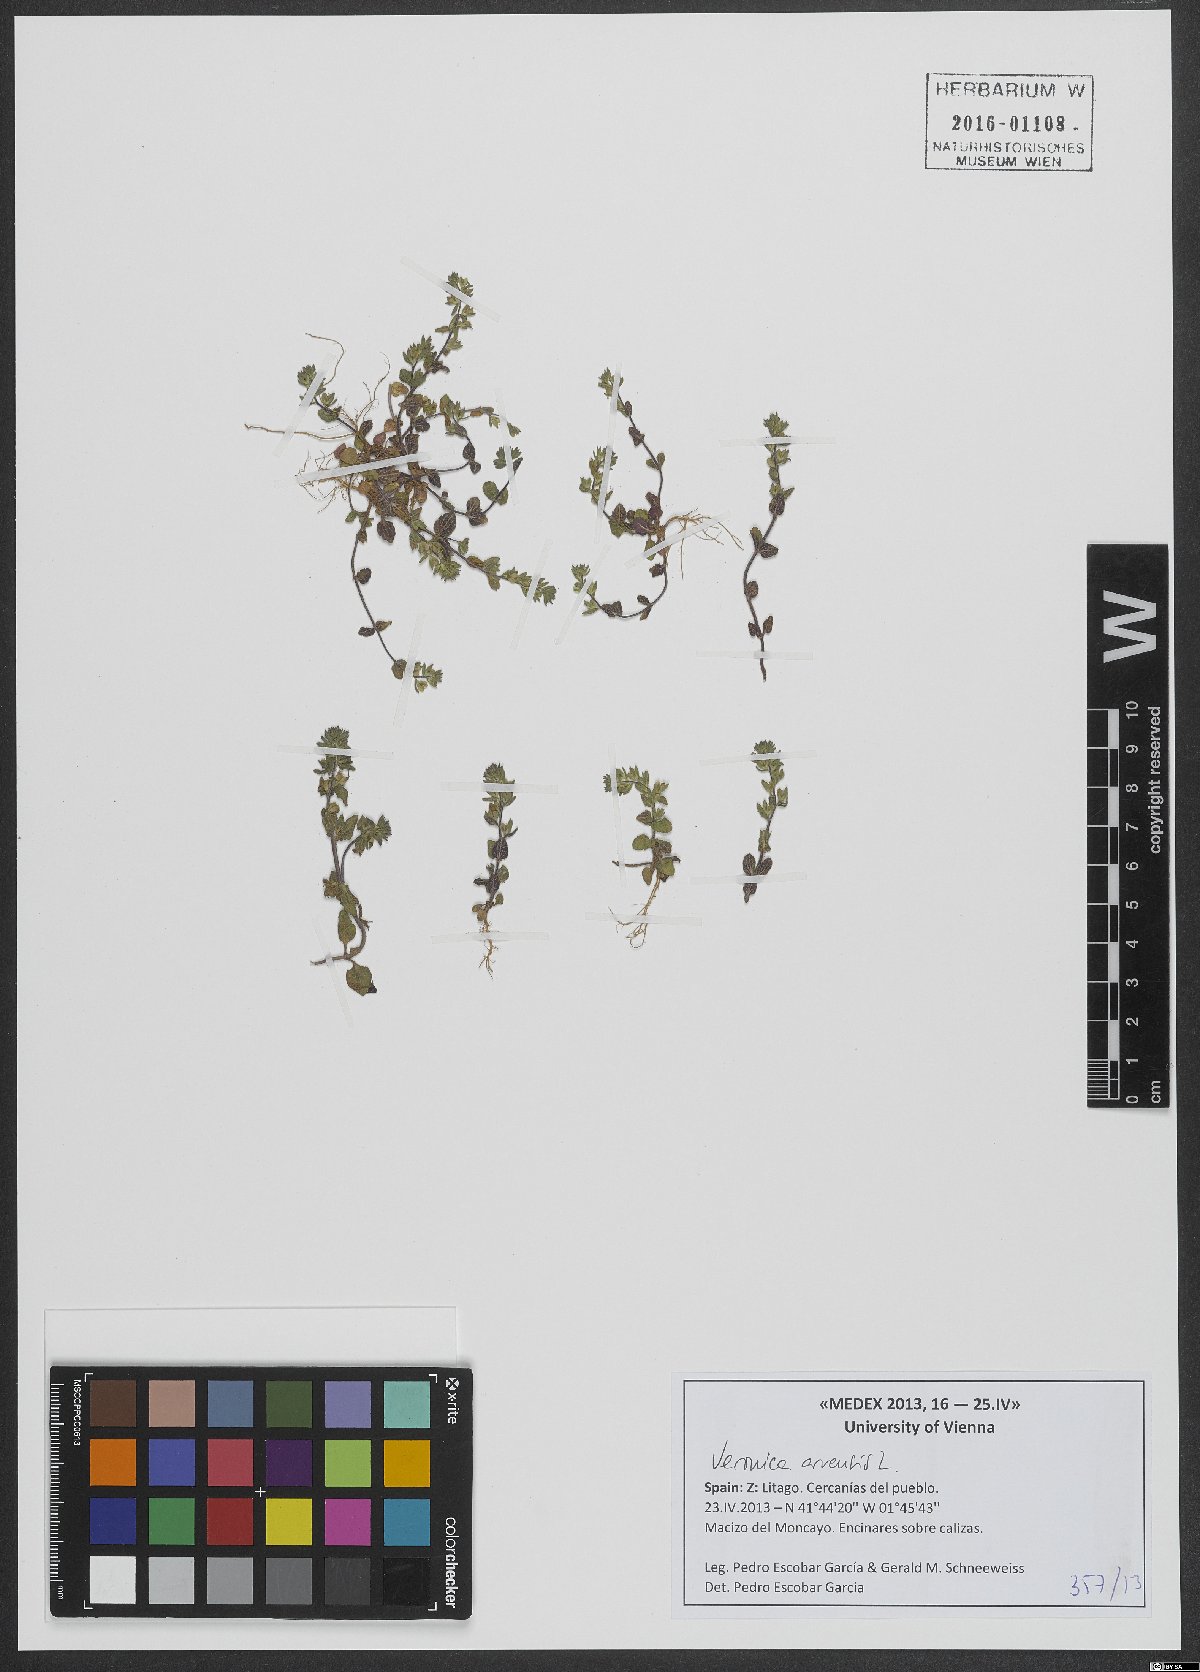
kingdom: Plantae
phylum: Tracheophyta
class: Magnoliopsida
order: Lamiales
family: Plantaginaceae
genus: Veronica
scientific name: Veronica arvensis
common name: Corn speedwell
